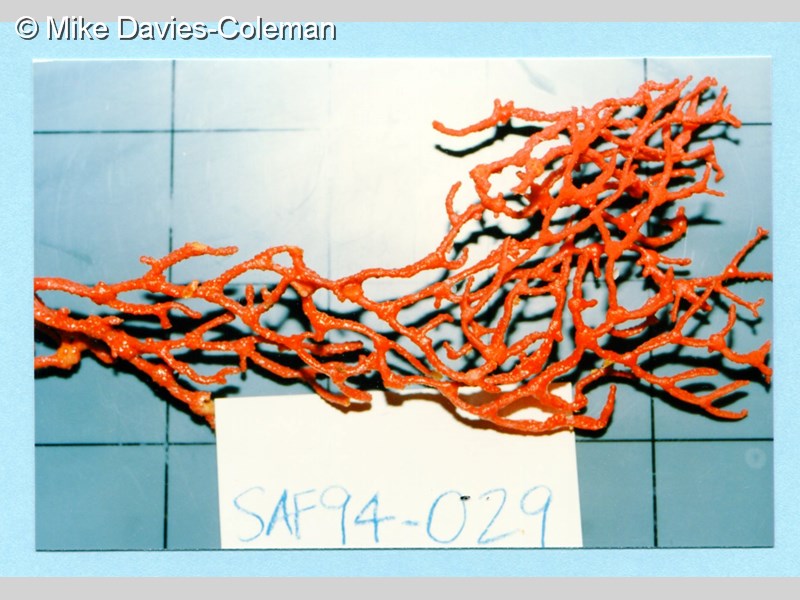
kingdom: Animalia
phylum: Cnidaria
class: Anthozoa
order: Malacalcyonacea
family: Melithaeidae
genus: Melithaea
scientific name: Melithaea rubra
